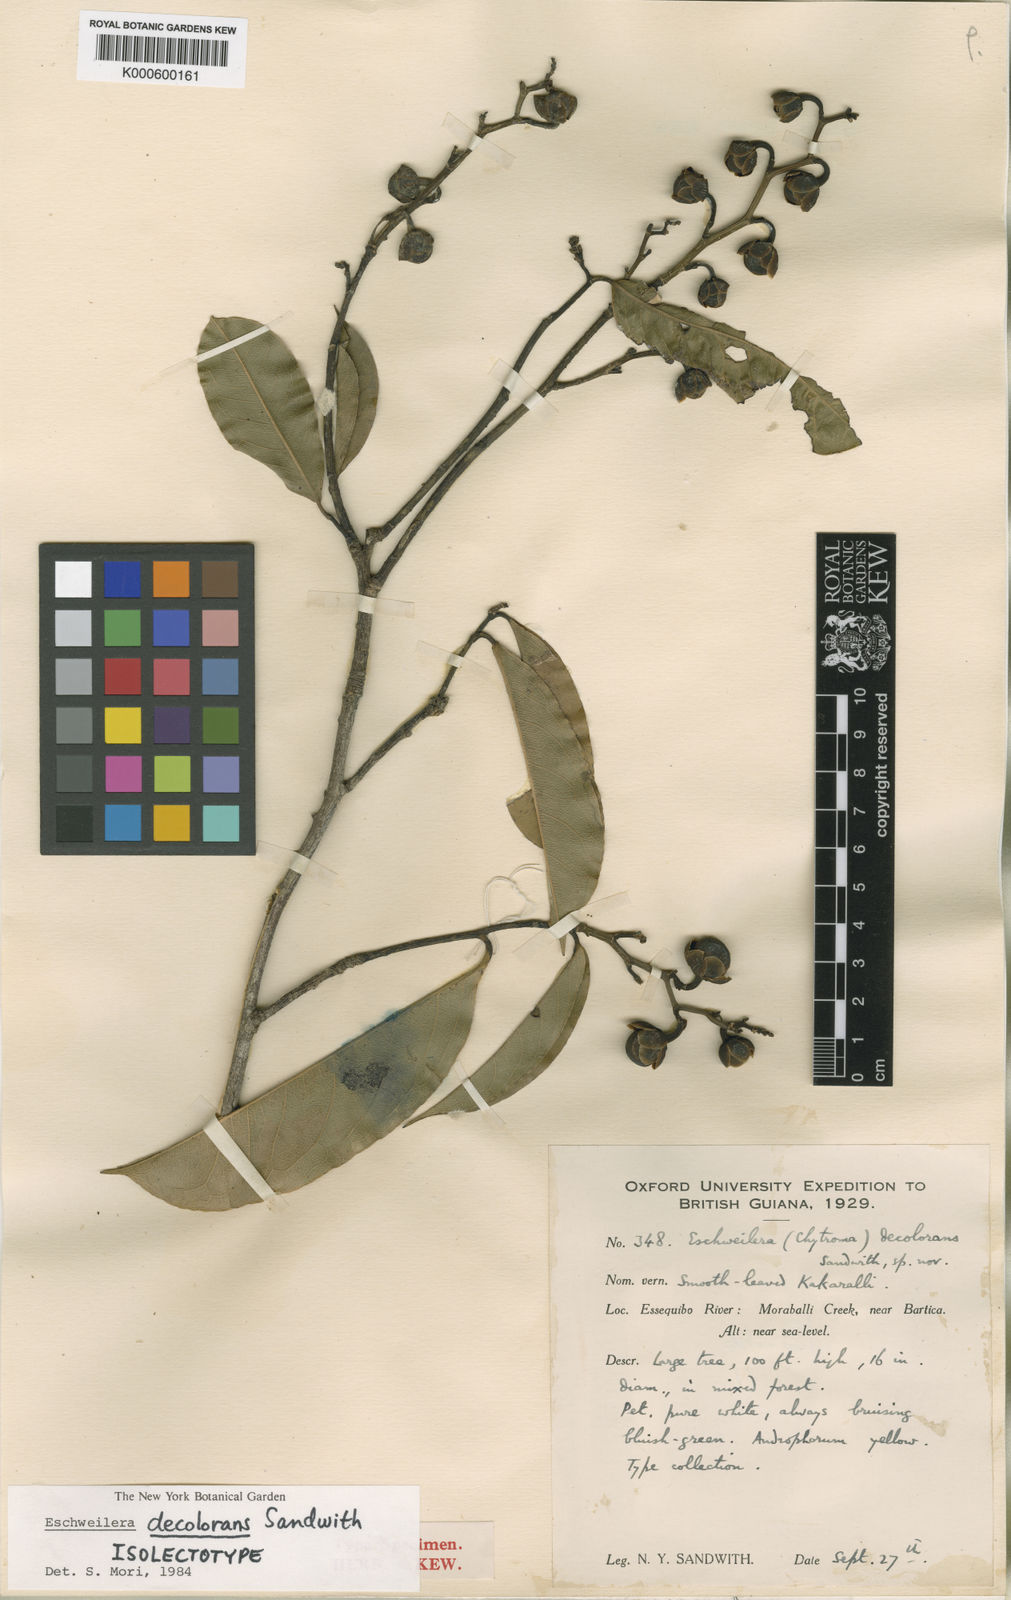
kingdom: Plantae
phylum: Tracheophyta
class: Magnoliopsida
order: Ericales
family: Lecythidaceae
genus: Eschweilera
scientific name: Eschweilera decolorans
